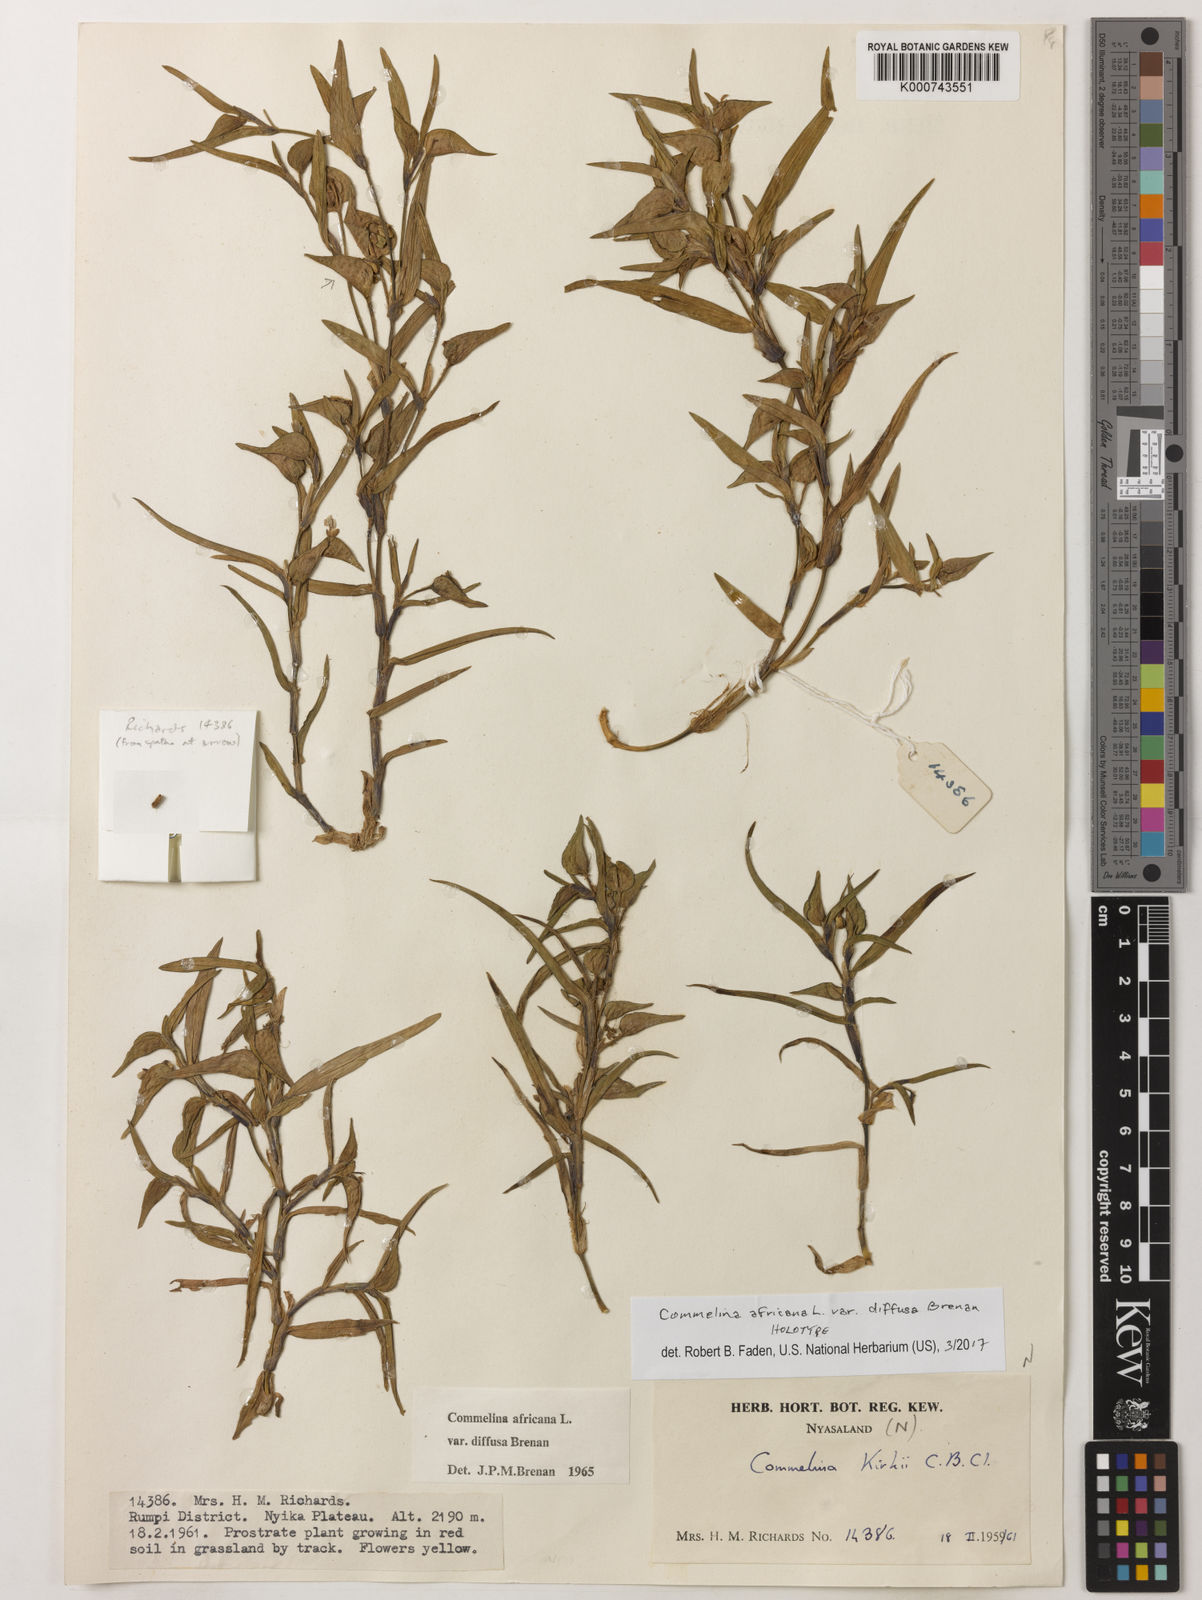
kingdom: Plantae
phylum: Tracheophyta
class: Liliopsida
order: Commelinales
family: Commelinaceae
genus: Commelina
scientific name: Commelina africana
